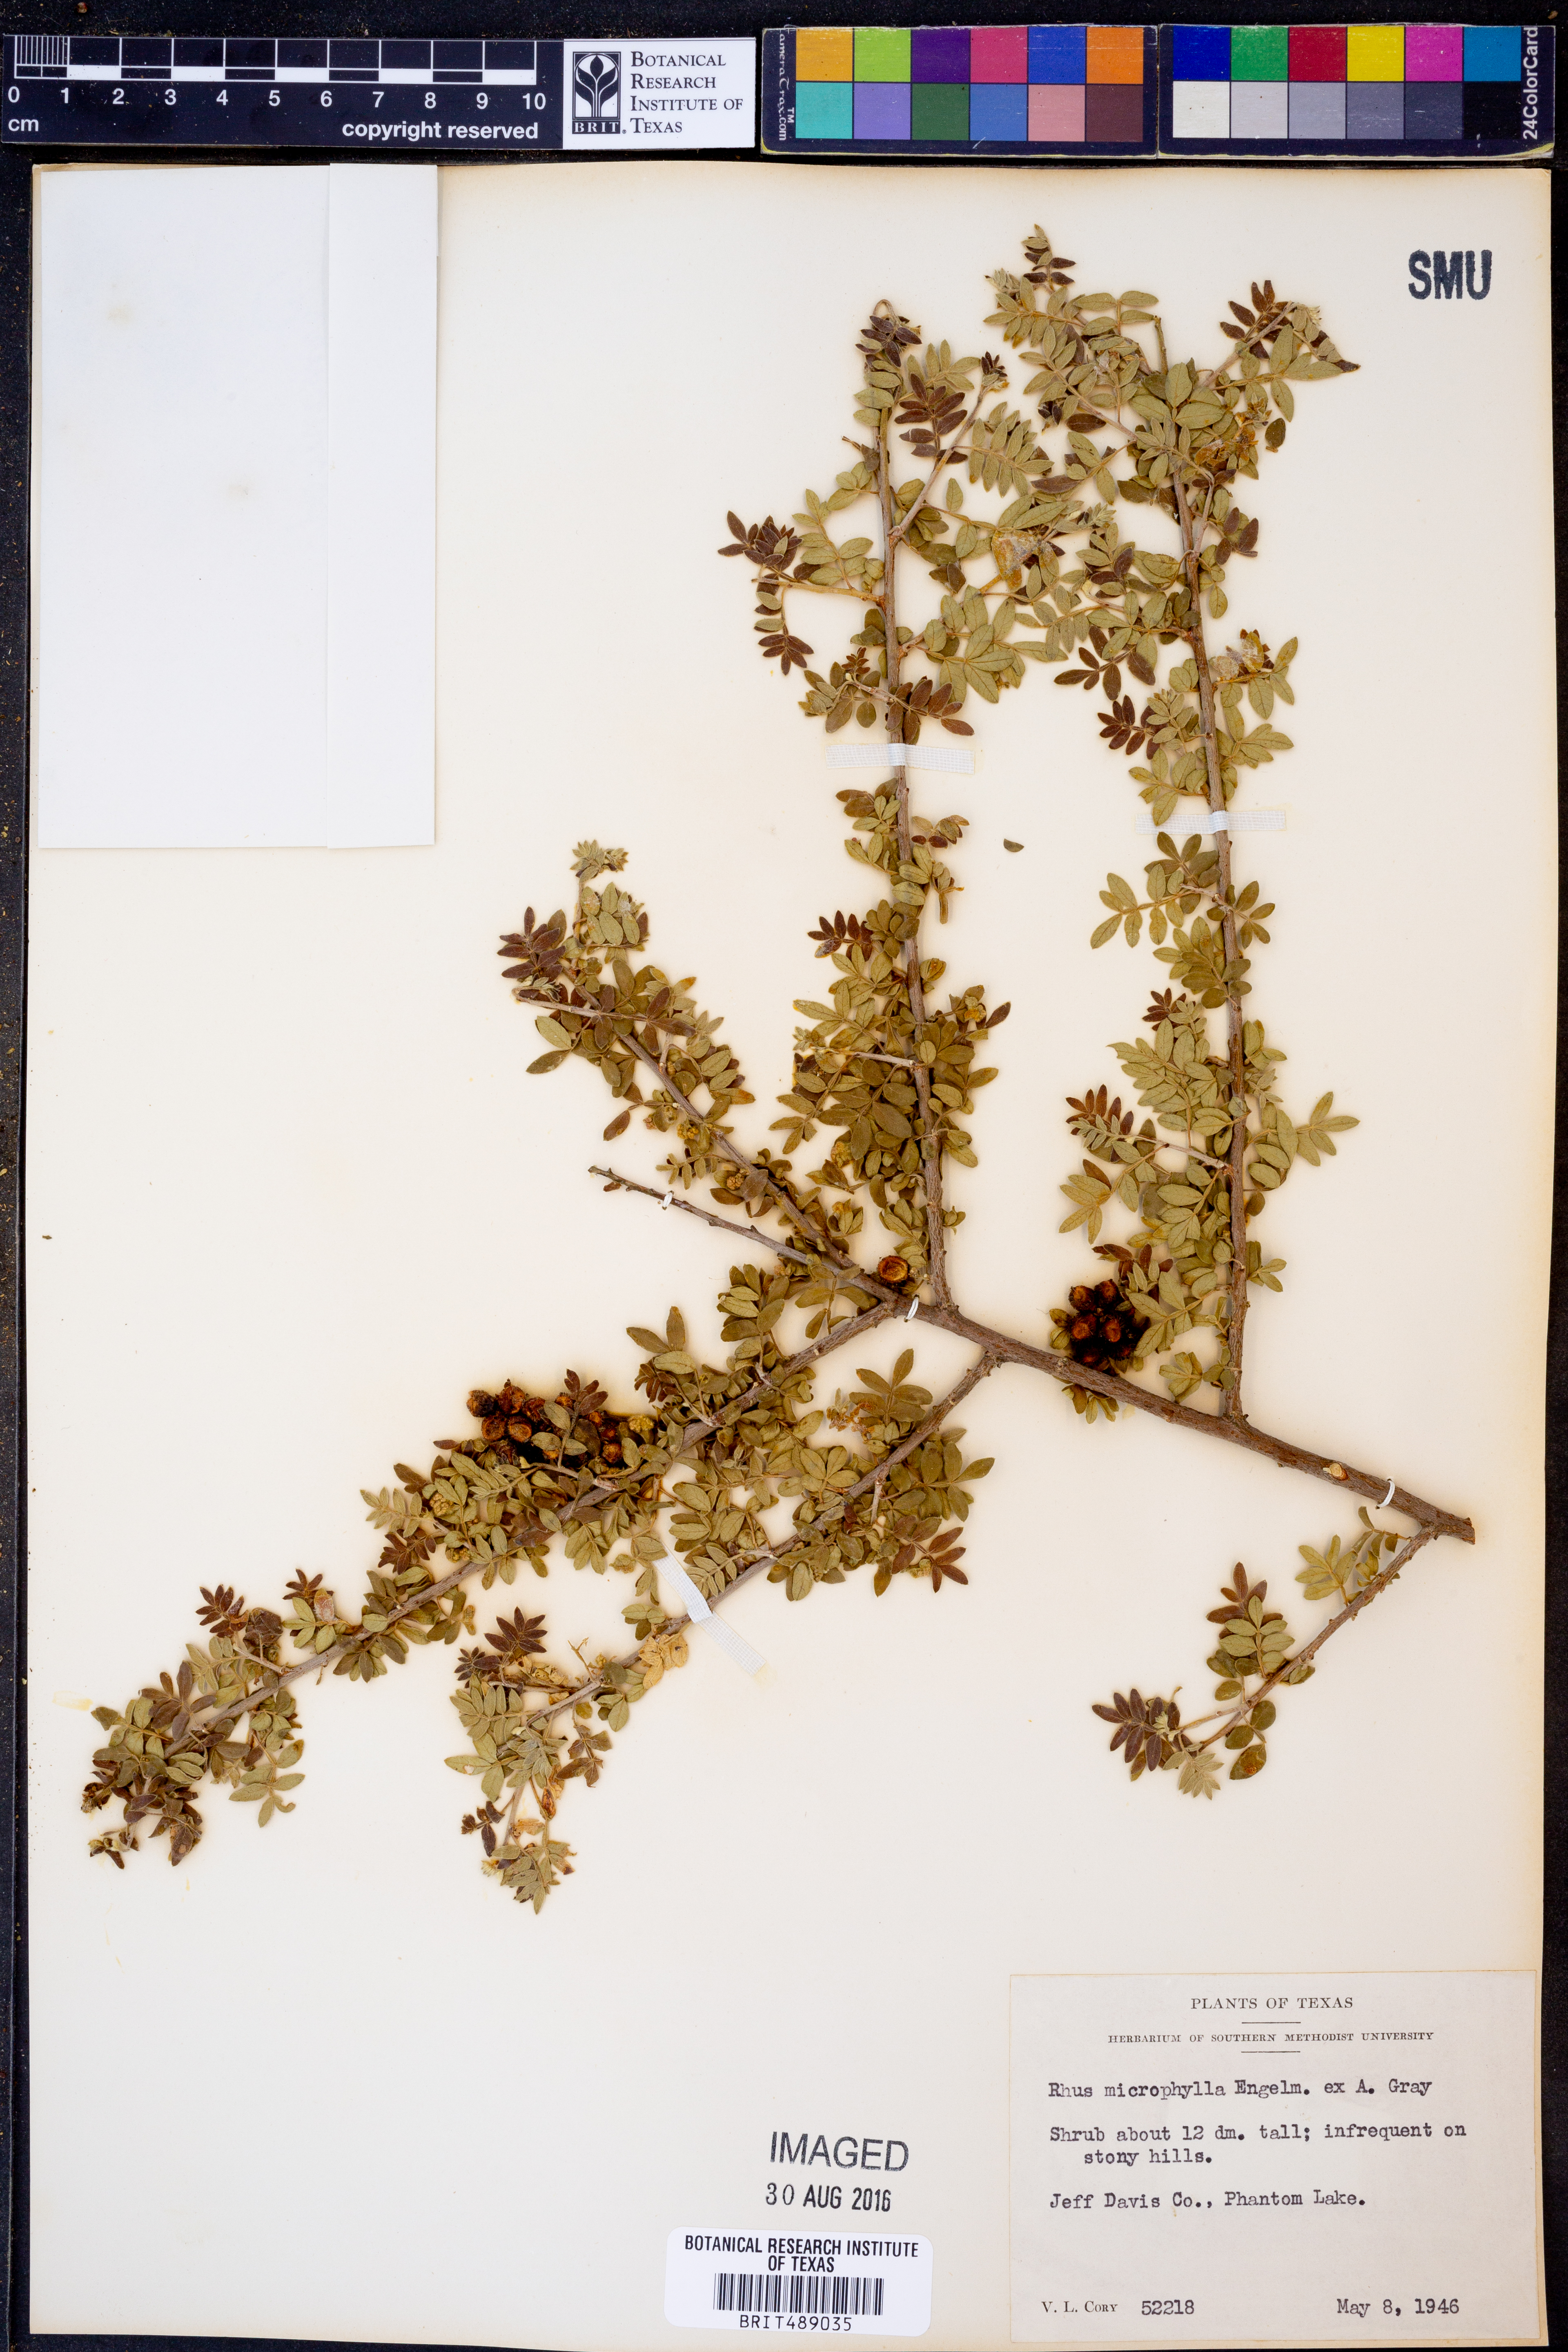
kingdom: Plantae
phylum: Tracheophyta
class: Magnoliopsida
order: Sapindales
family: Anacardiaceae
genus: Rhus
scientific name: Rhus microphylla
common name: Desert sumac
